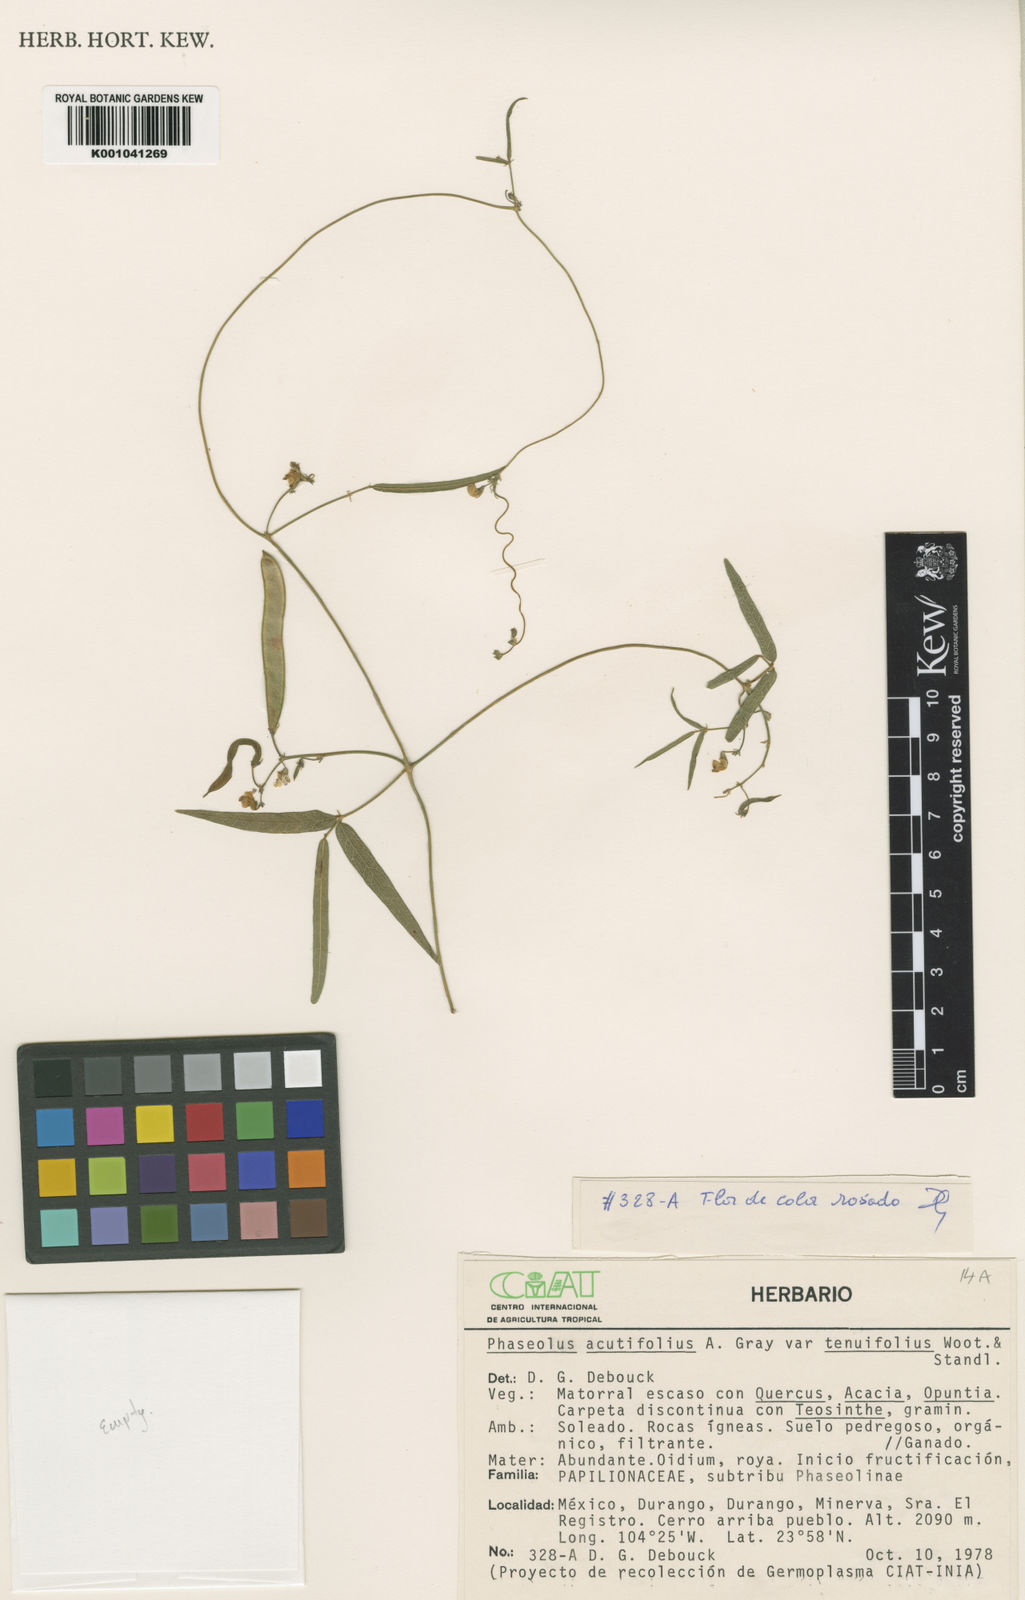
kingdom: Plantae
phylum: Tracheophyta
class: Magnoliopsida
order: Fabales
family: Fabaceae
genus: Phaseolus
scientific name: Phaseolus acutifolius
